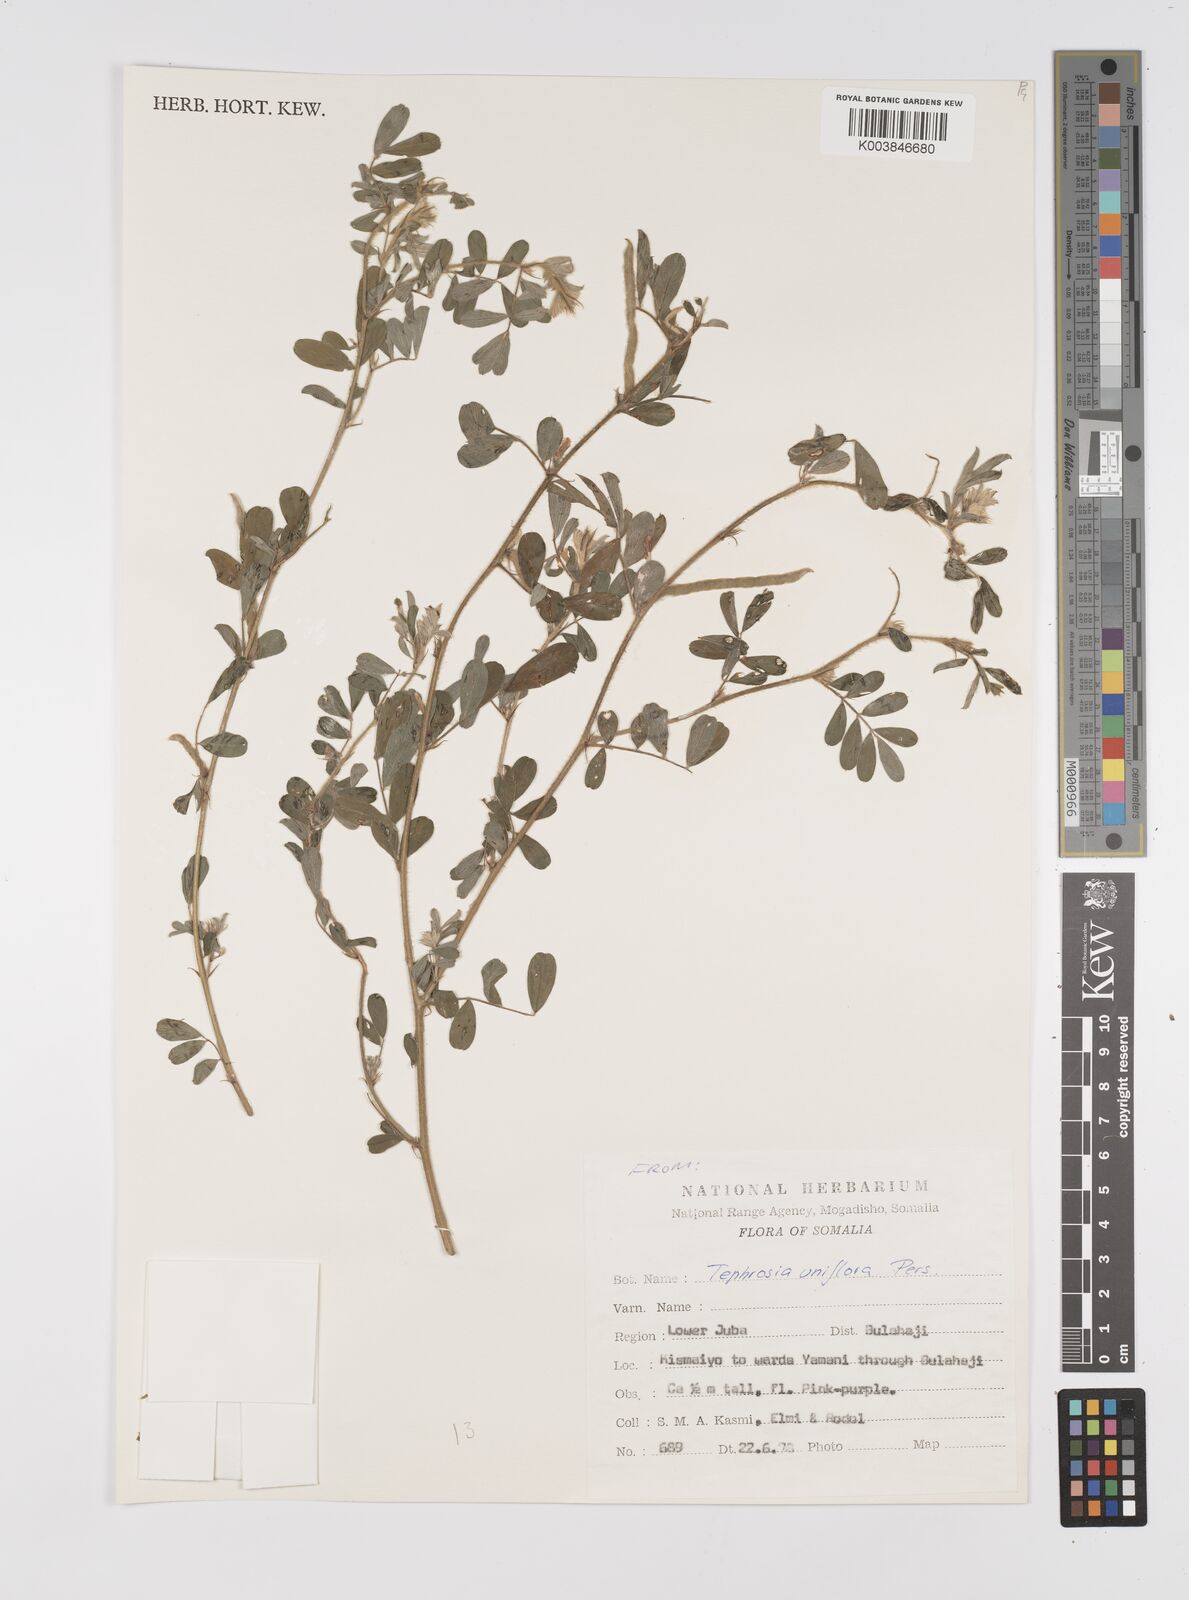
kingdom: Plantae
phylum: Tracheophyta
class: Magnoliopsida
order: Fabales
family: Fabaceae
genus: Tephrosia
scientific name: Tephrosia uniflora
